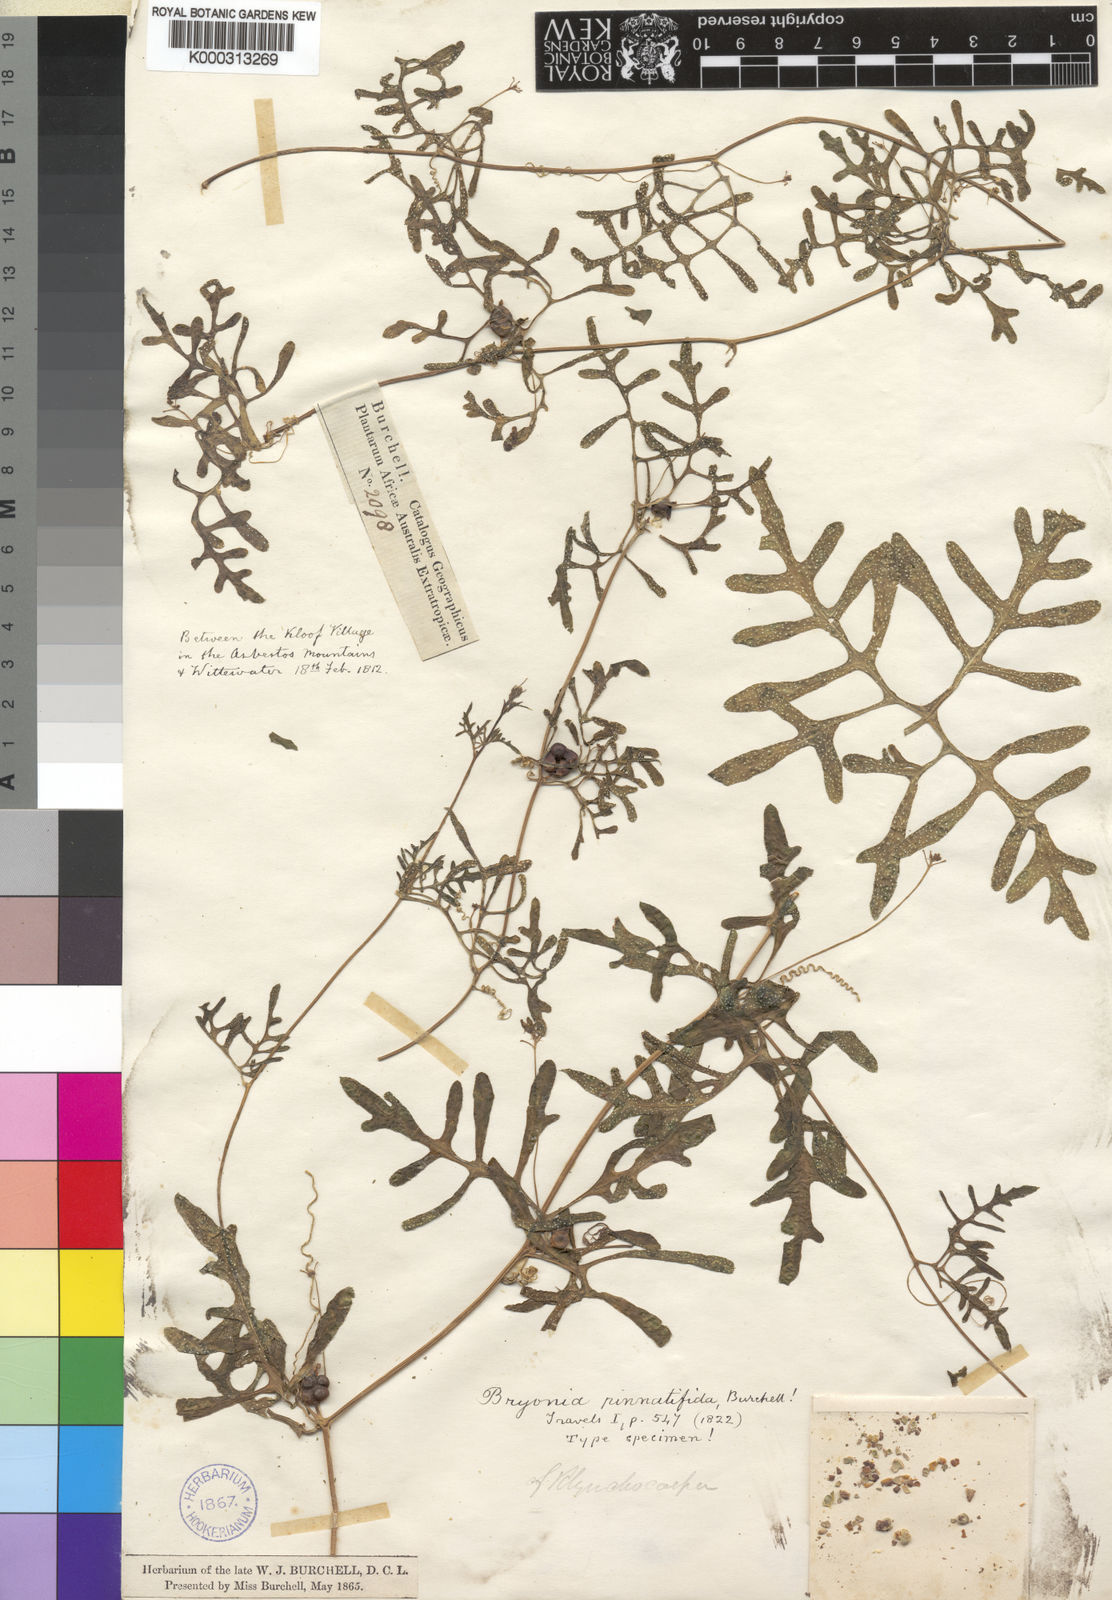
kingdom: Plantae
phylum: Tracheophyta
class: Magnoliopsida
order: Cucurbitales
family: Cucurbitaceae
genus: Kedrostis
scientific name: Kedrostis africana
